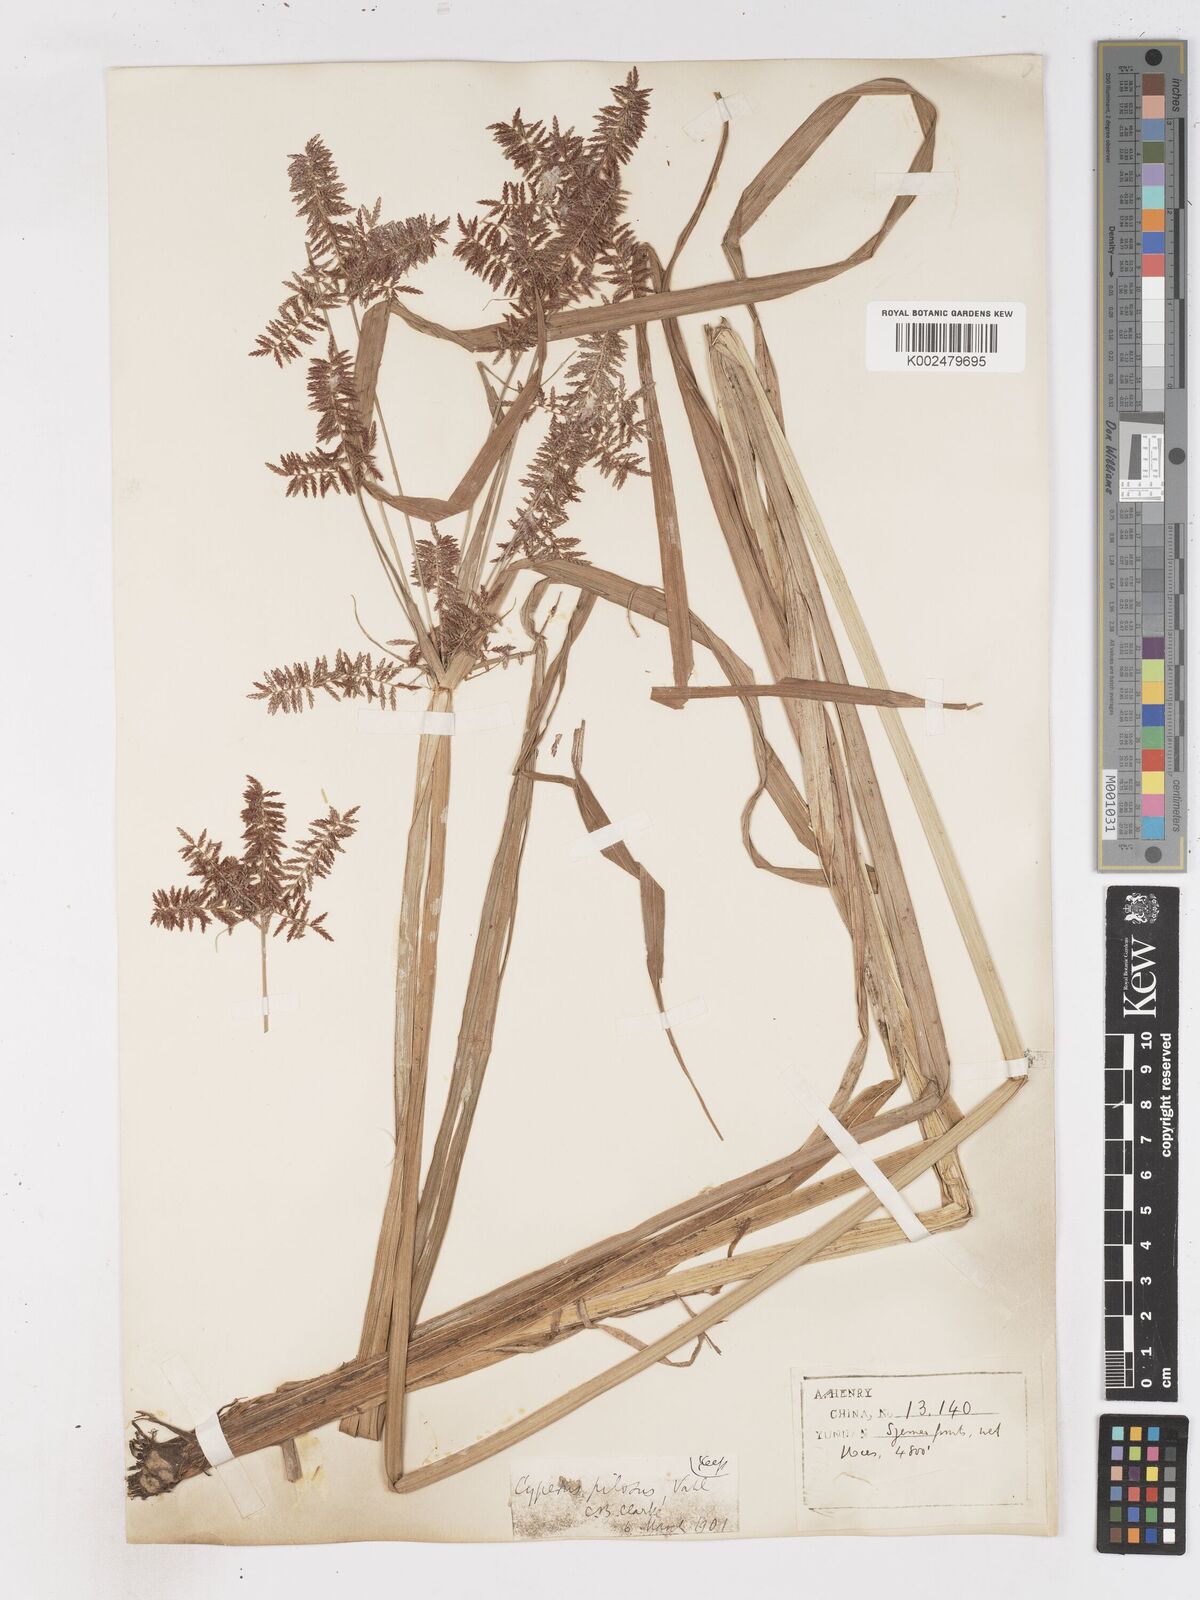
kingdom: Plantae
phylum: Tracheophyta
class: Liliopsida
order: Poales
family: Cyperaceae
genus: Cyperus
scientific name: Cyperus pilosus
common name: Fuzzy flatsedge
